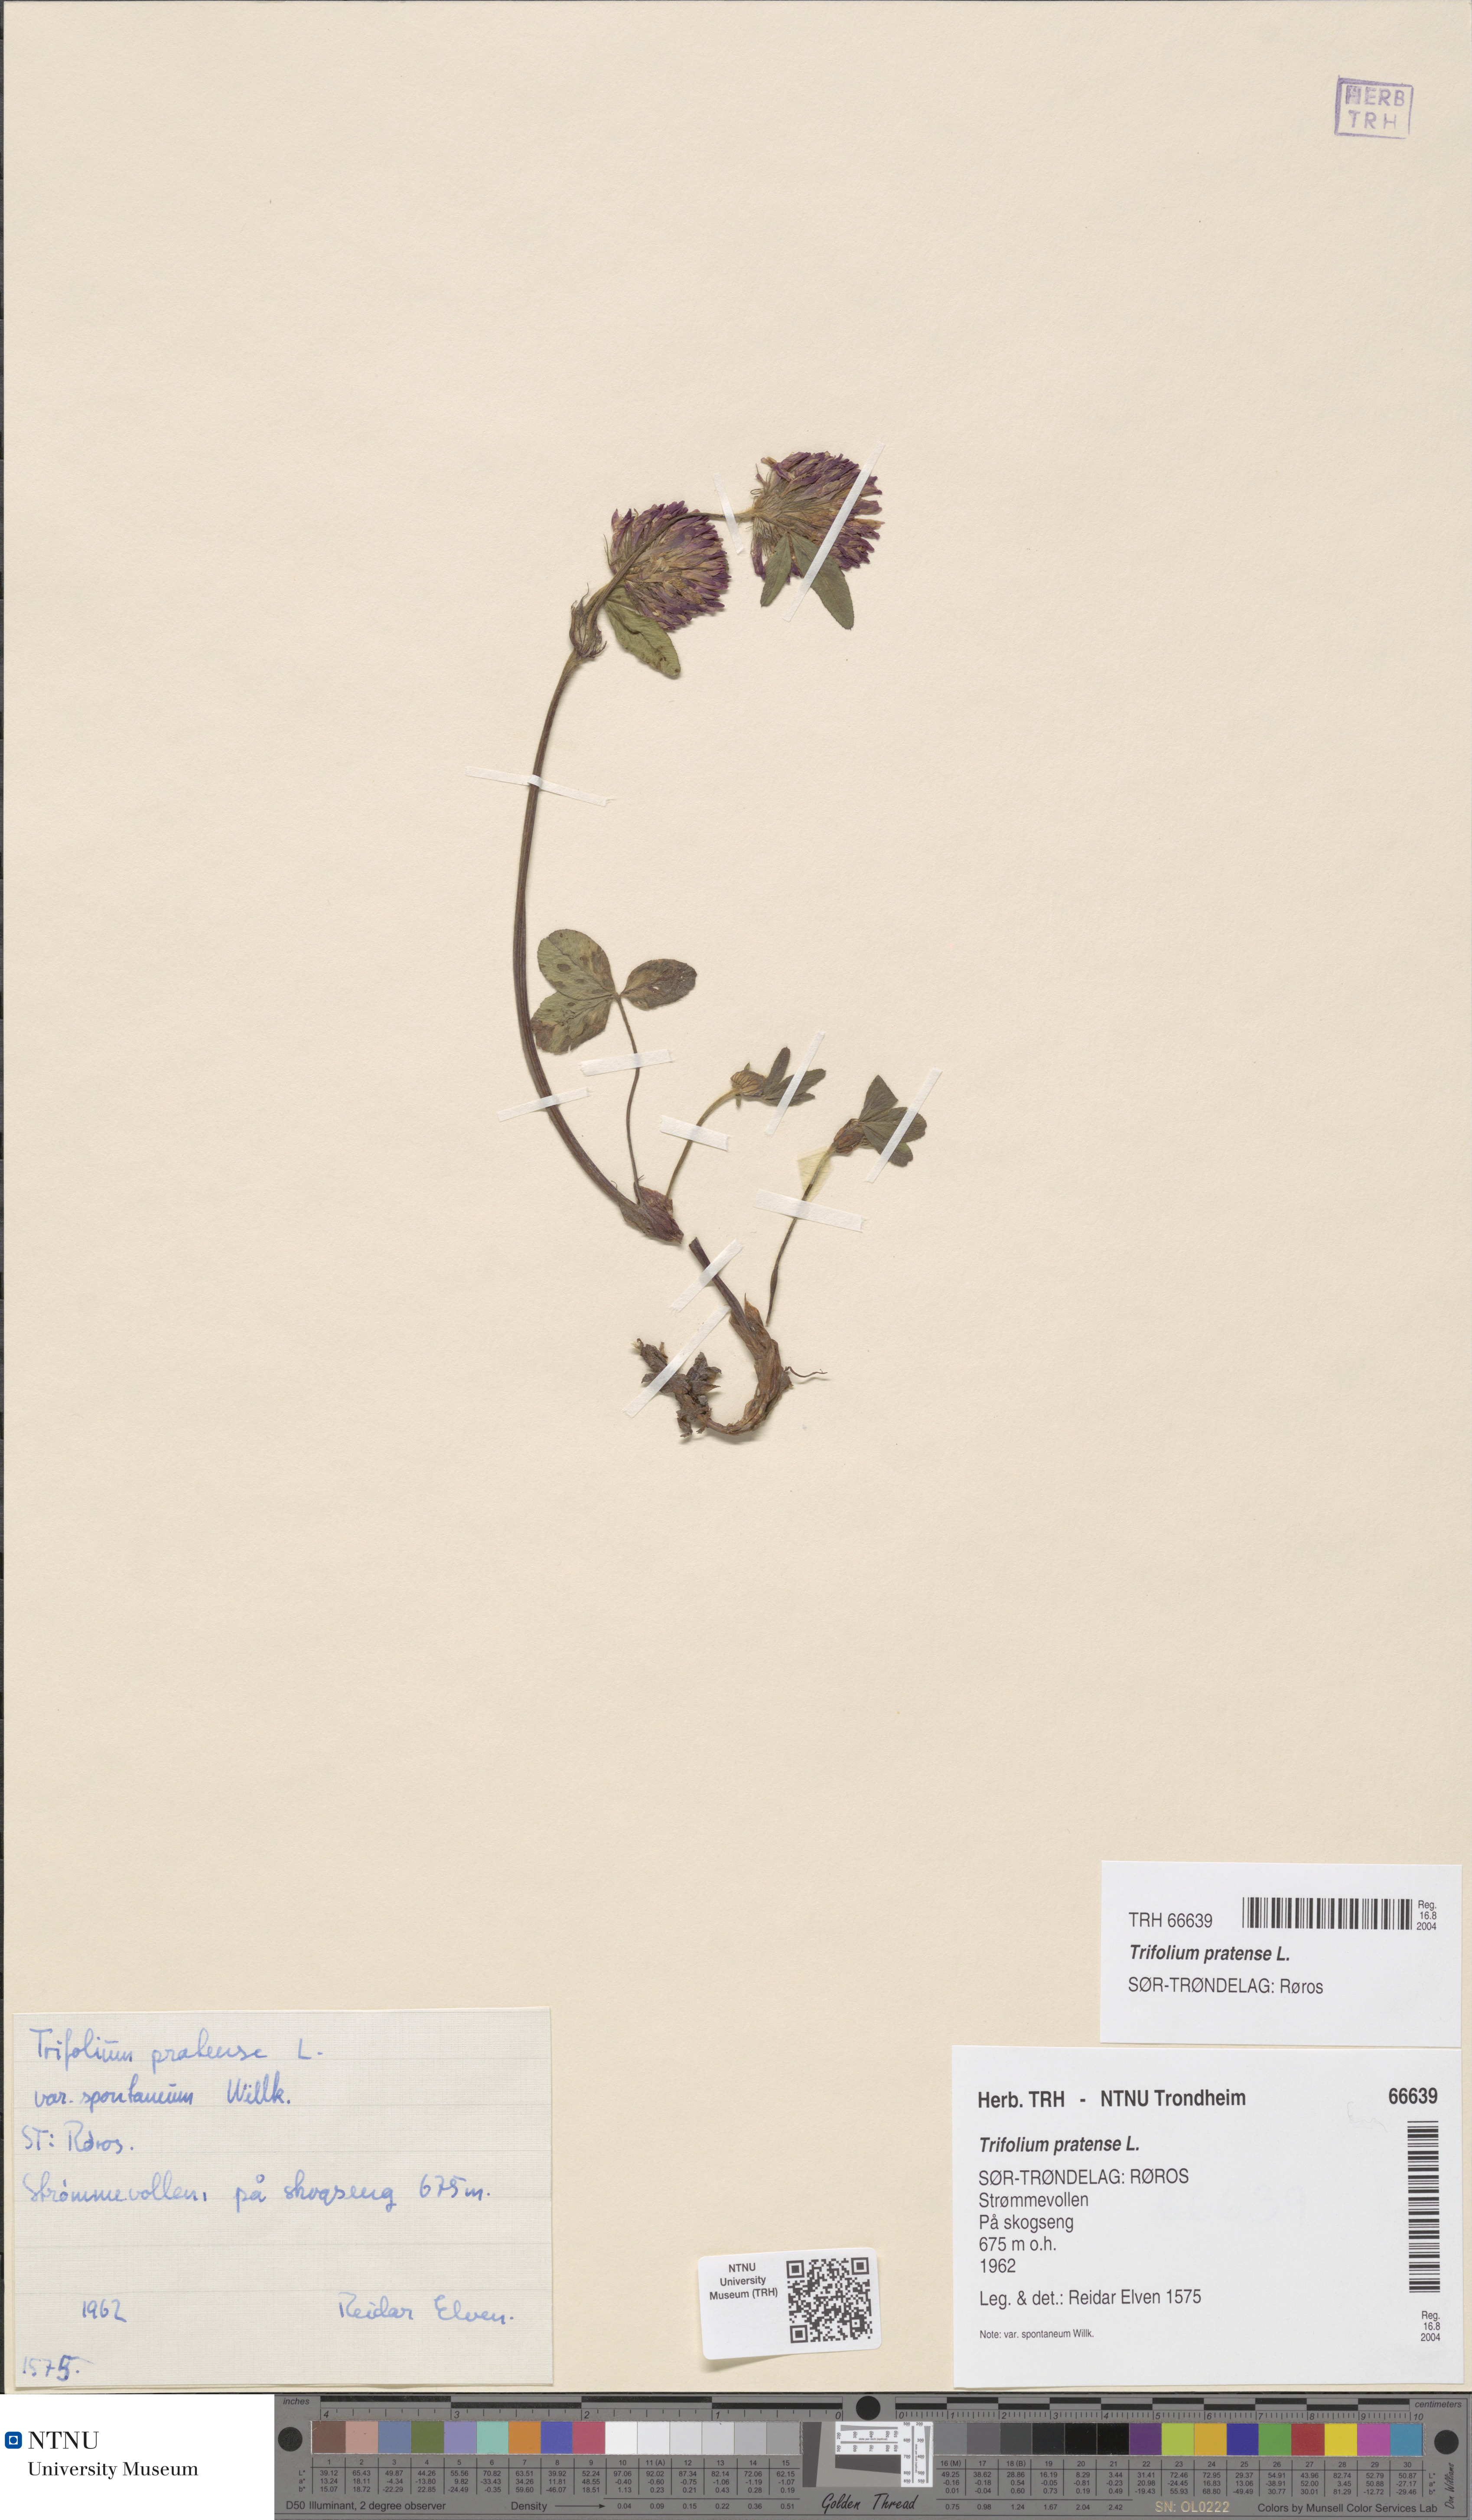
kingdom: Plantae
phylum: Tracheophyta
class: Magnoliopsida
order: Fabales
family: Fabaceae
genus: Trifolium
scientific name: Trifolium pratense
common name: Red clover
